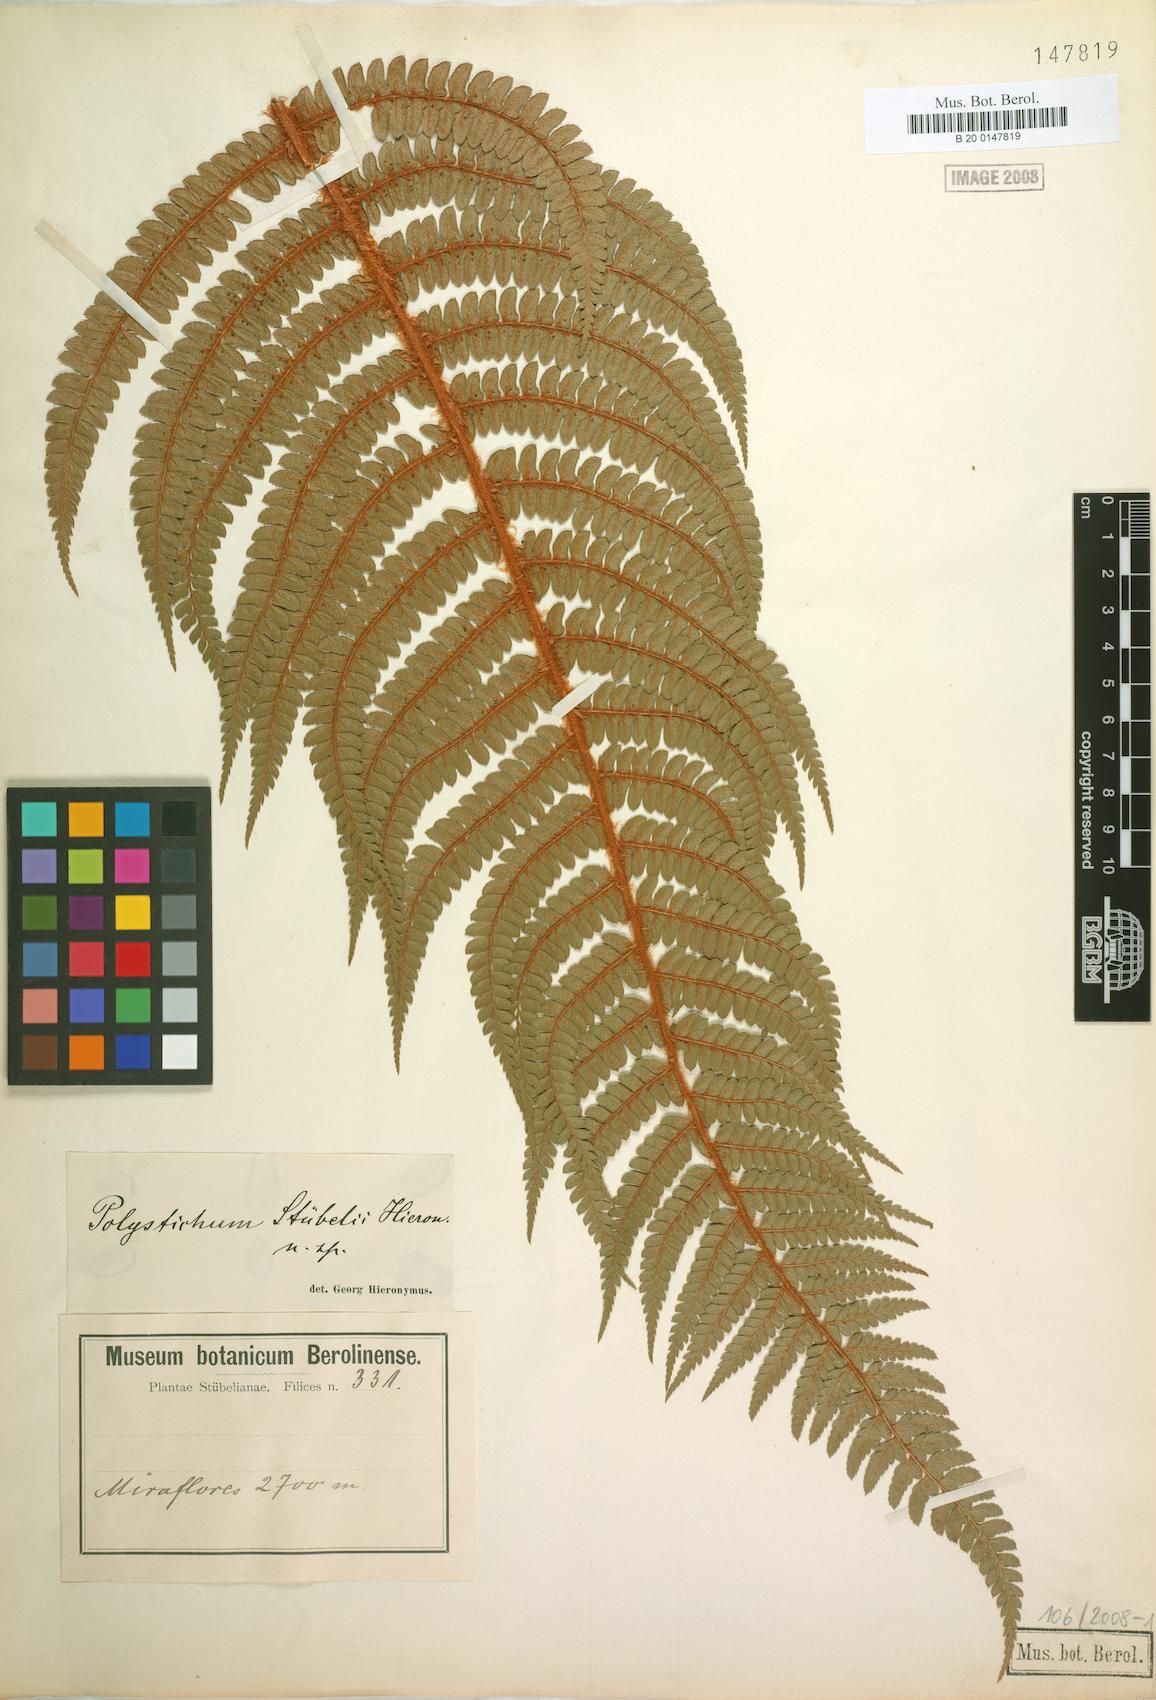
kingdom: Plantae
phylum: Tracheophyta
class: Polypodiopsida
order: Polypodiales
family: Dryopteridaceae
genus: Polystichum
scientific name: Polystichum stuebelii
